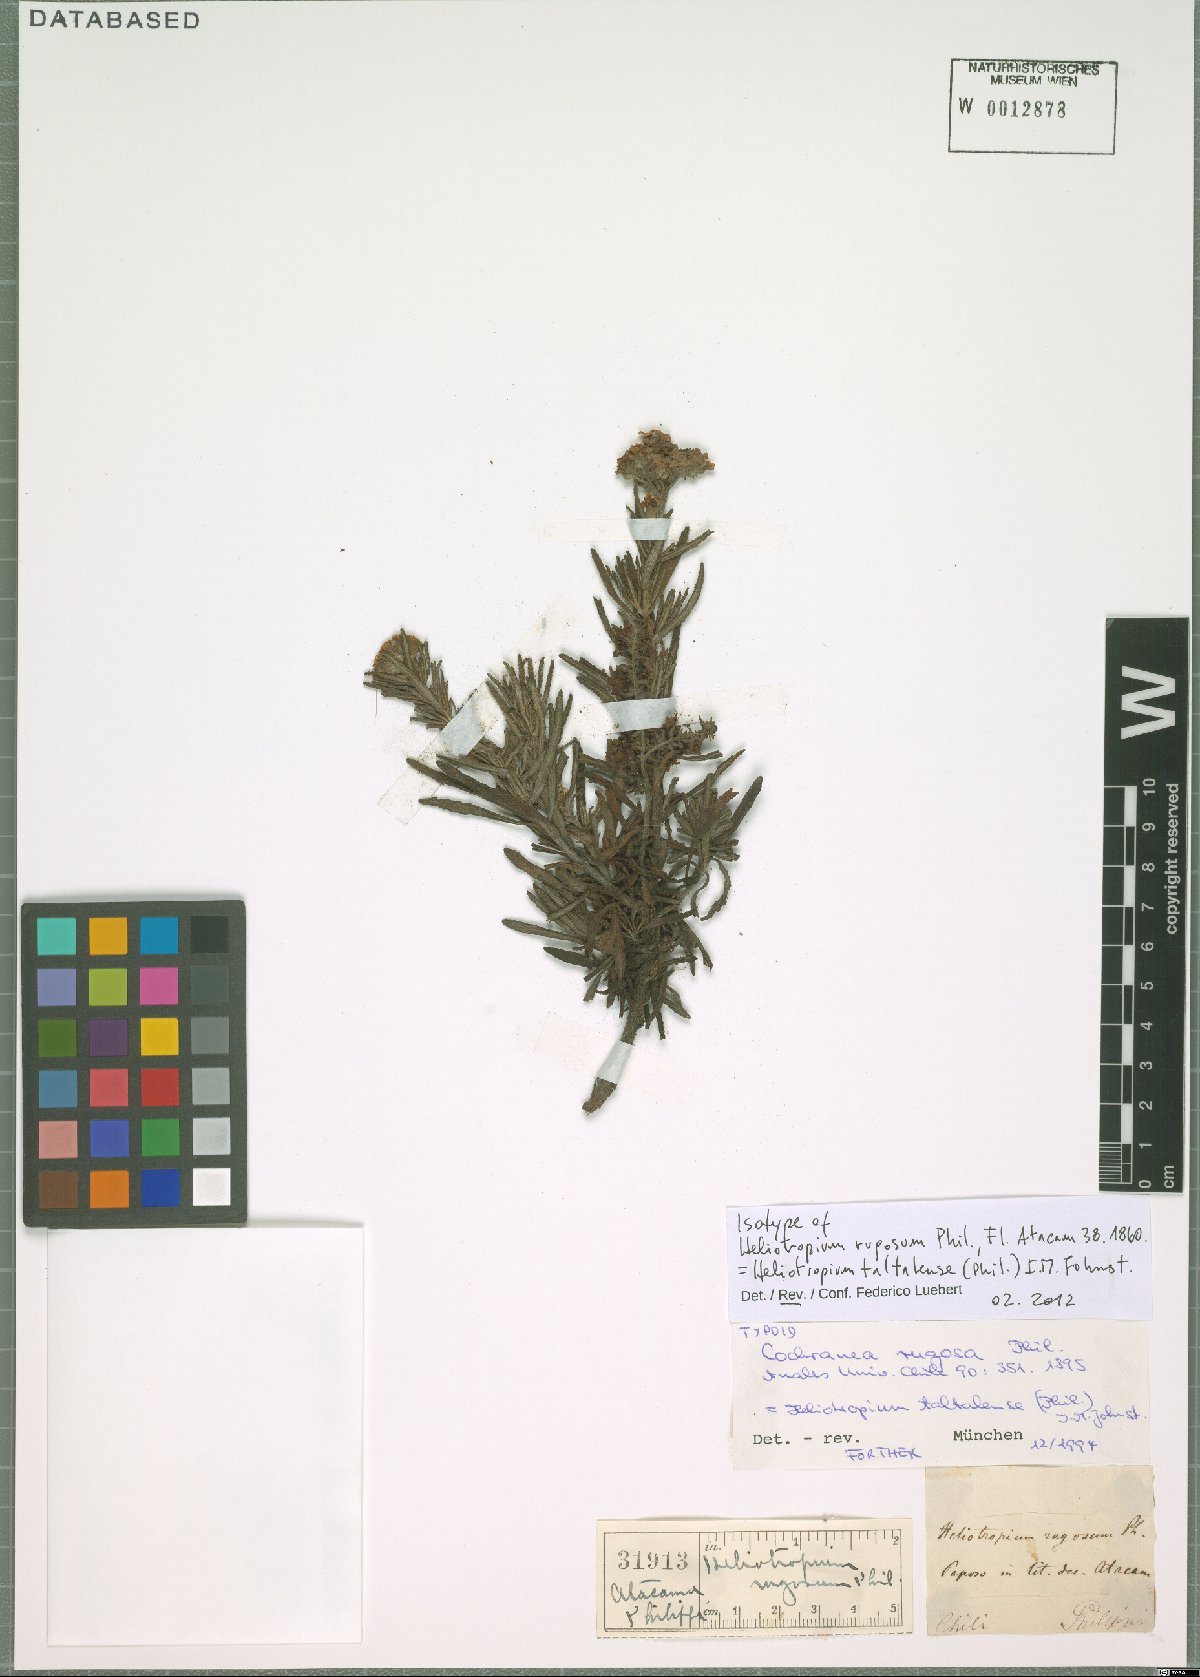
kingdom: Plantae
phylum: Tracheophyta
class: Magnoliopsida
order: Boraginales
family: Heliotropiaceae
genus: Heliotropium
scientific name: Heliotropium taltalense
